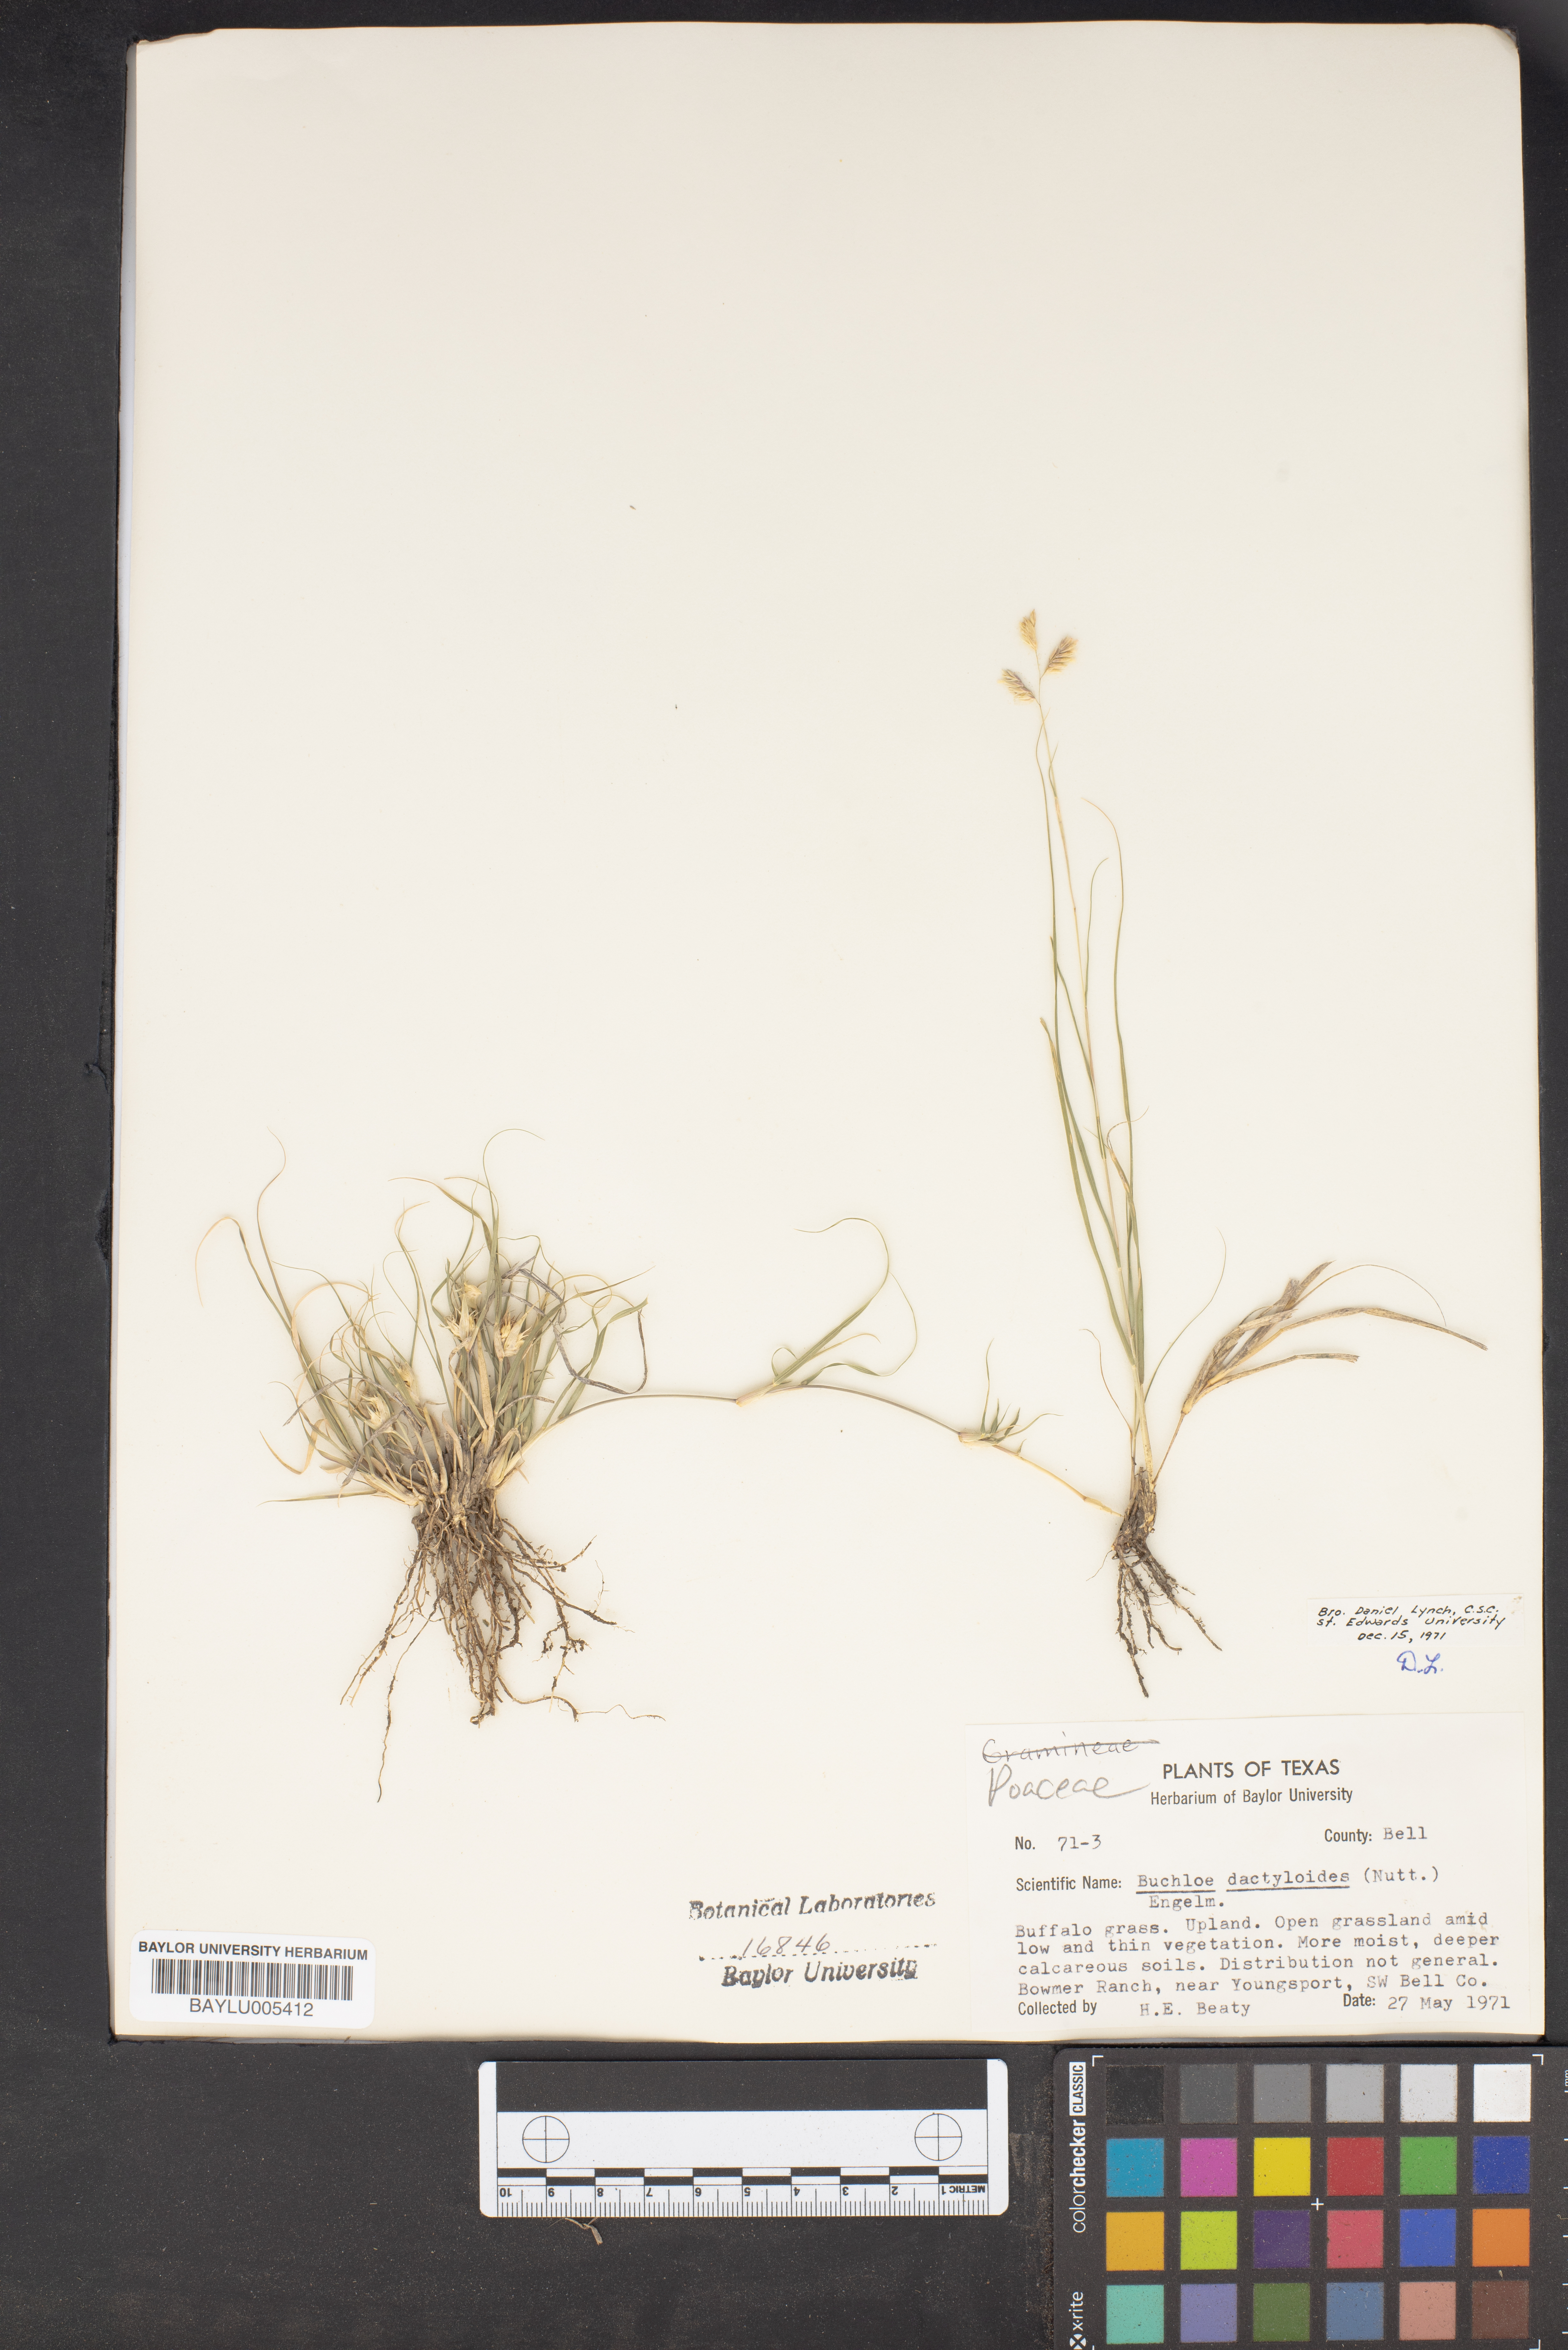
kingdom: Plantae
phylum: Tracheophyta
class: Liliopsida
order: Poales
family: Poaceae
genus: Bouteloua
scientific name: Bouteloua dactyloides
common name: Buffalo grass
